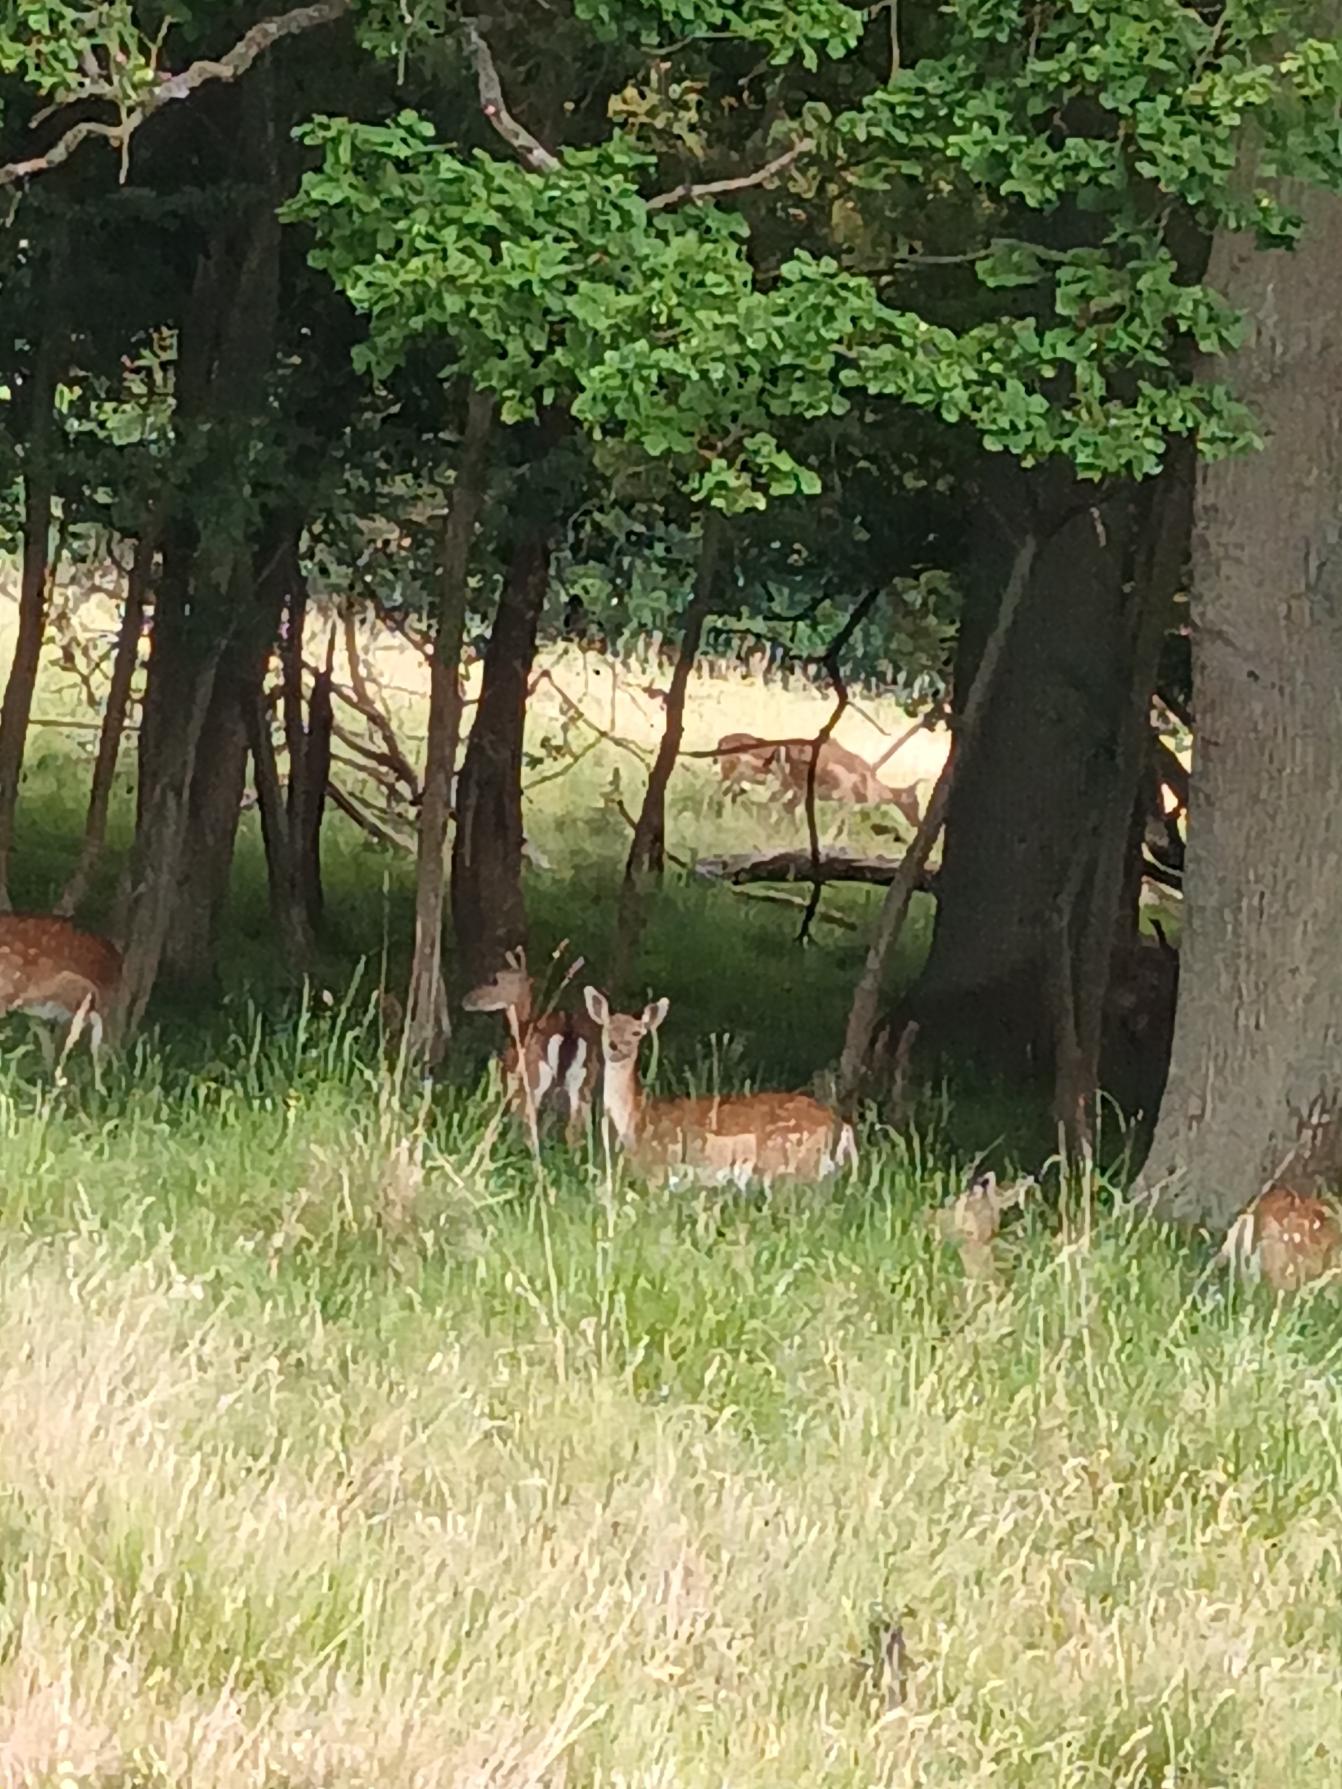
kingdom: Animalia
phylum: Chordata
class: Mammalia
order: Artiodactyla
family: Cervidae
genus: Dama
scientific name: Dama dama
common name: Dådyr
